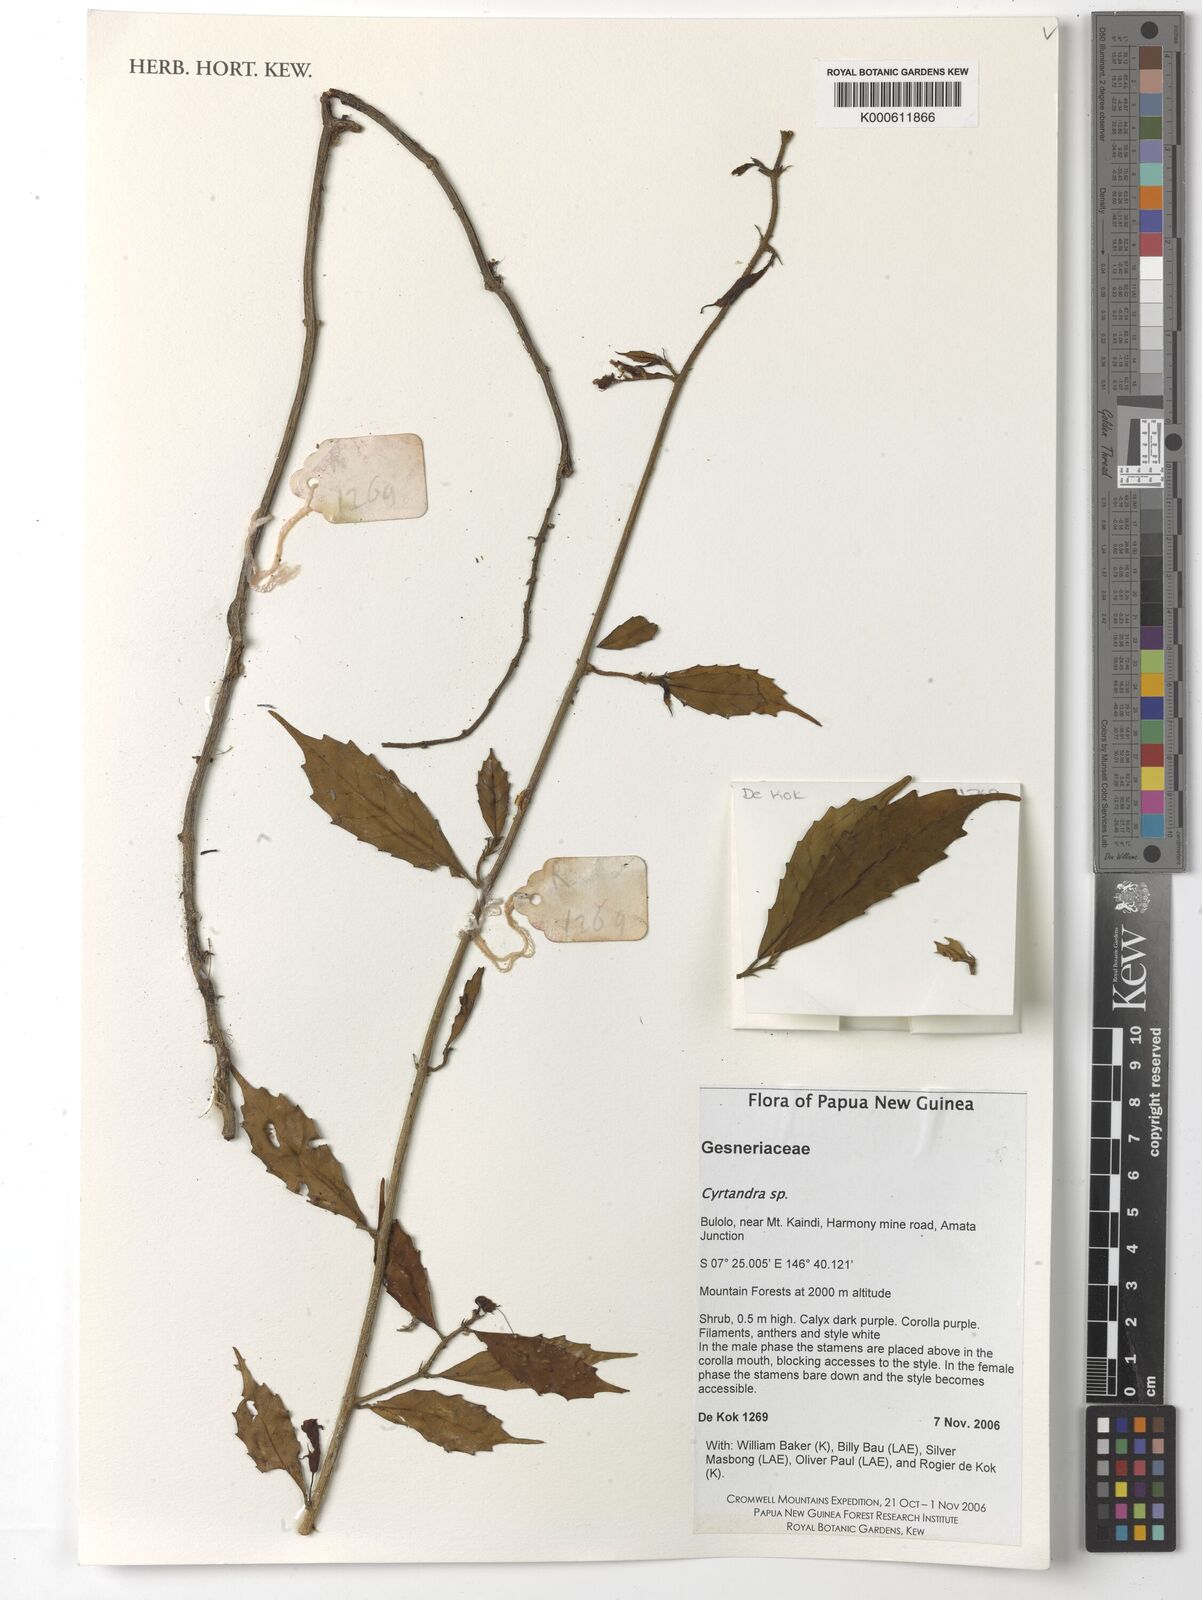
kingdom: Plantae
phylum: Tracheophyta
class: Magnoliopsida
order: Lamiales
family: Gesneriaceae
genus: Cyrtandra
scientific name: Cyrtandra
